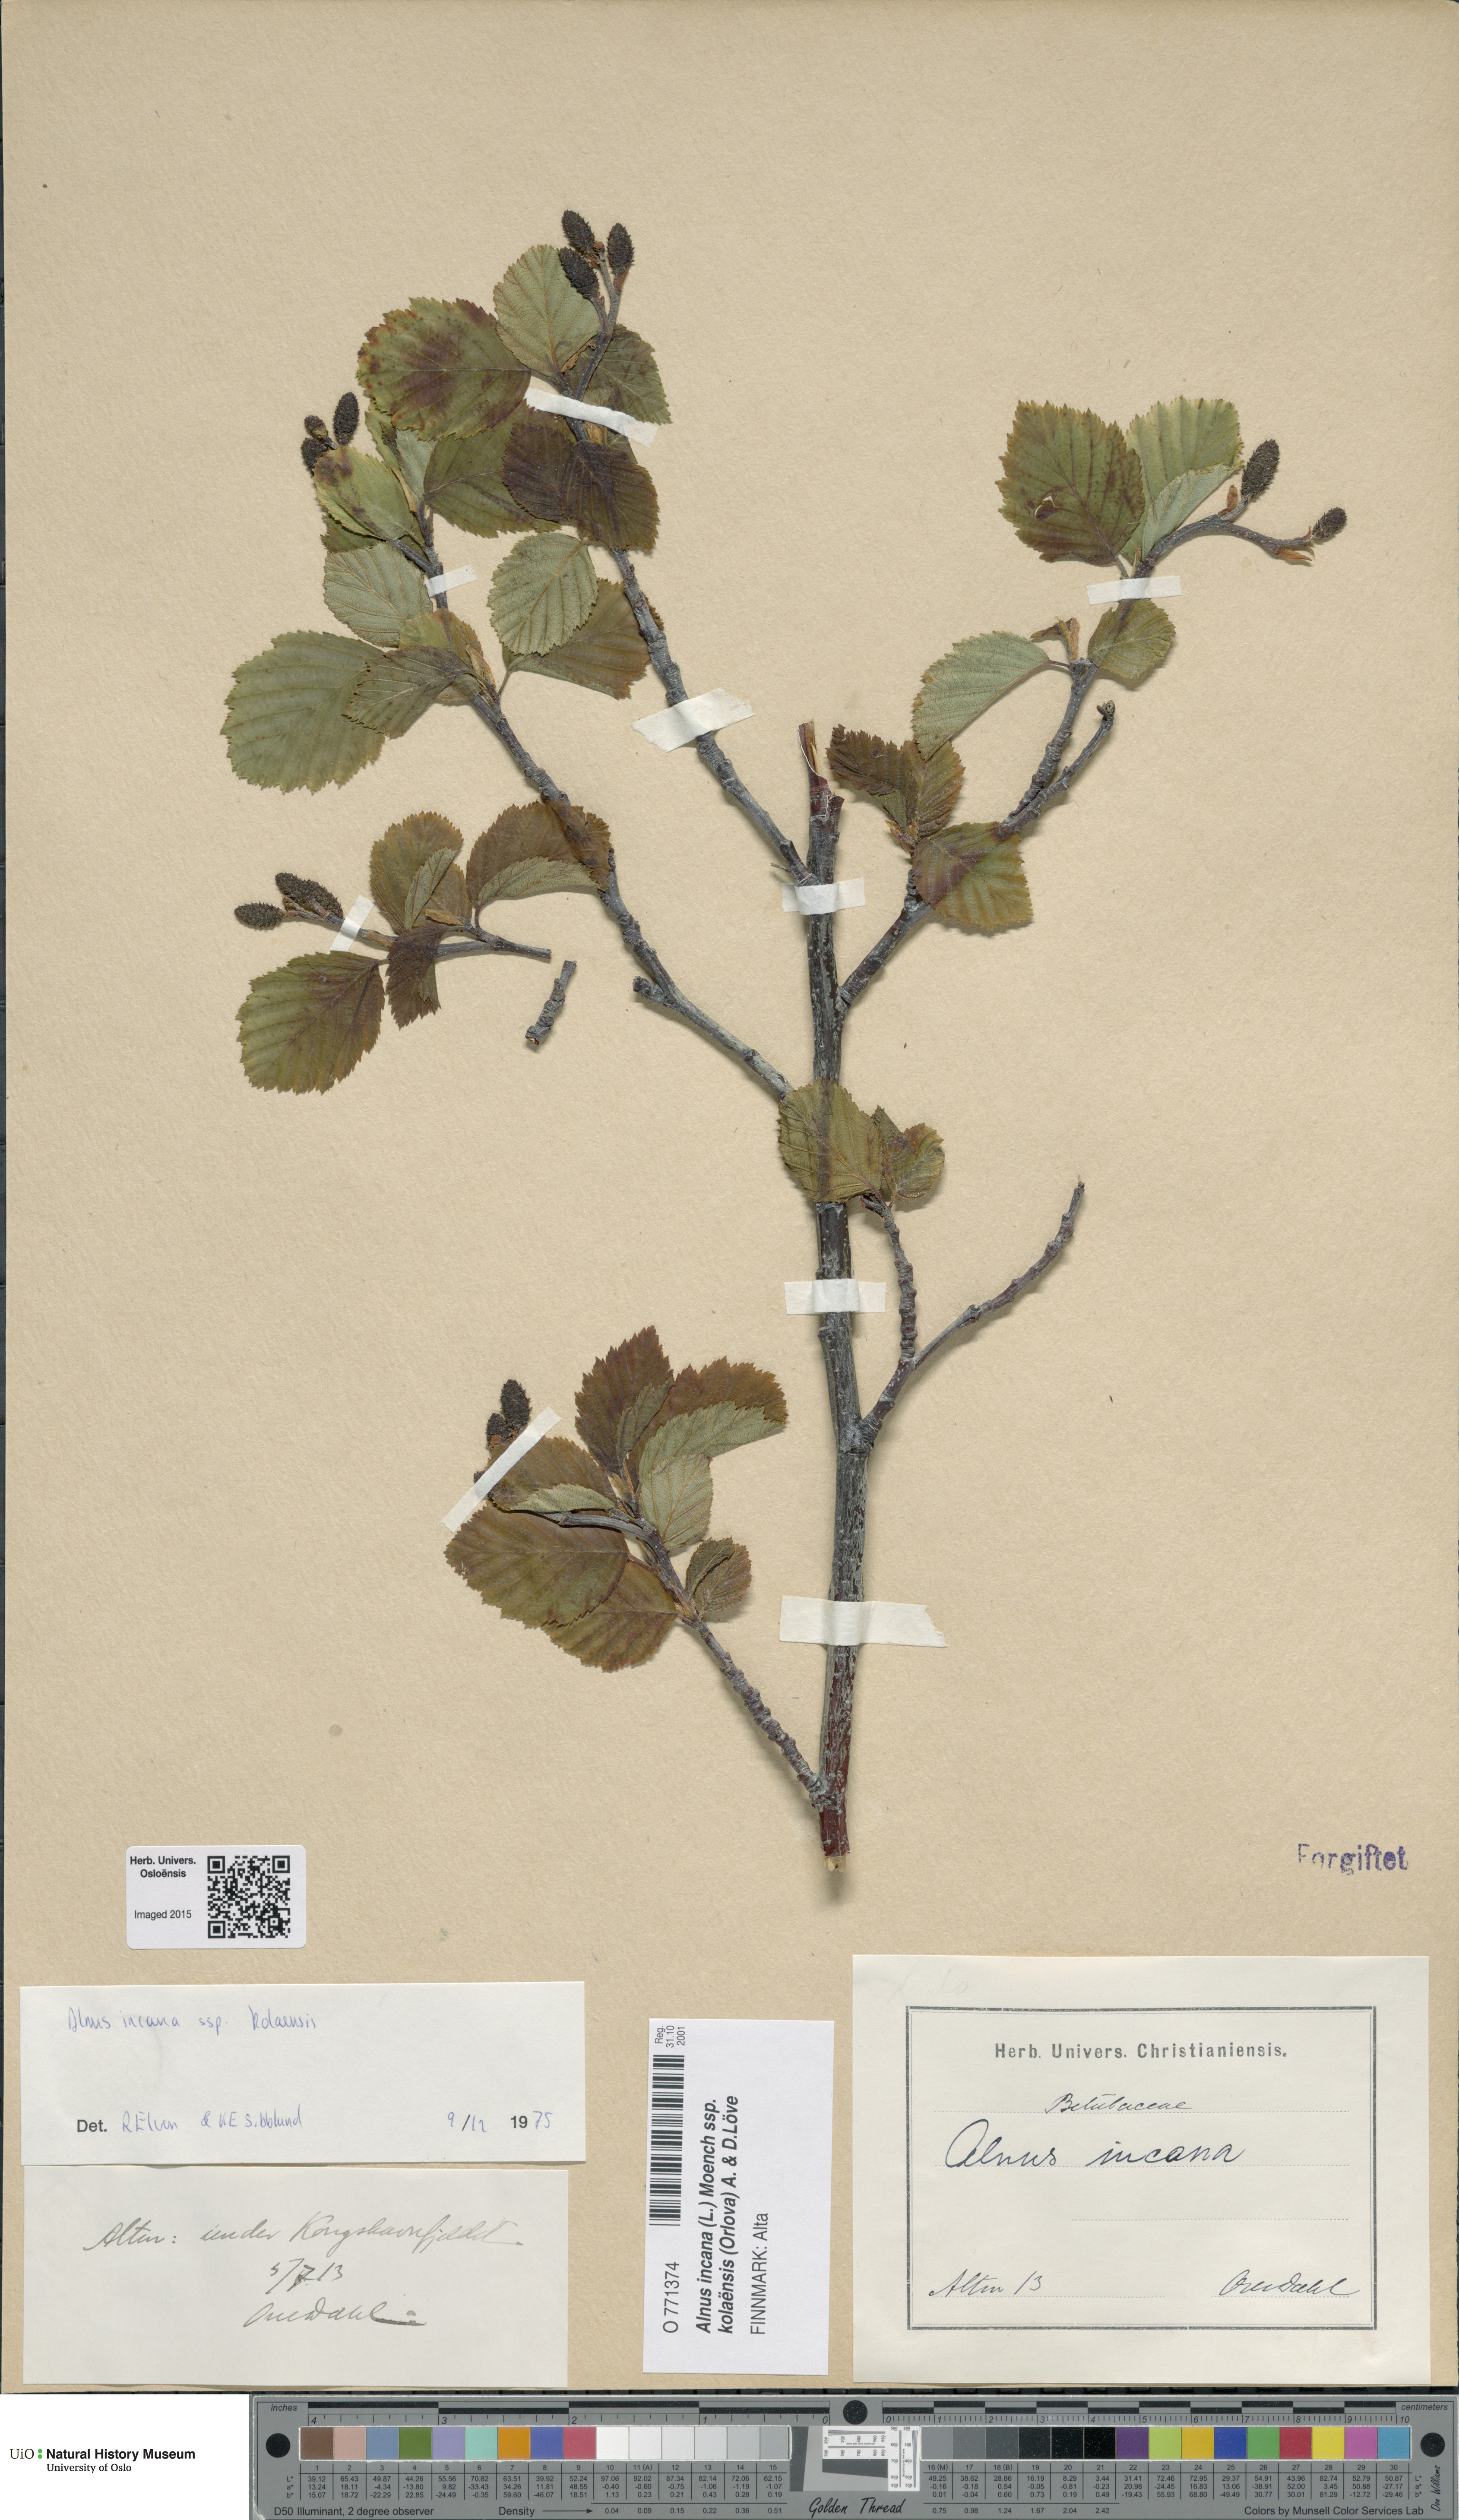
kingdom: Plantae
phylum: Tracheophyta
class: Magnoliopsida
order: Fagales
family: Betulaceae
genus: Alnus
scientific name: Alnus incana
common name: Grey alder
